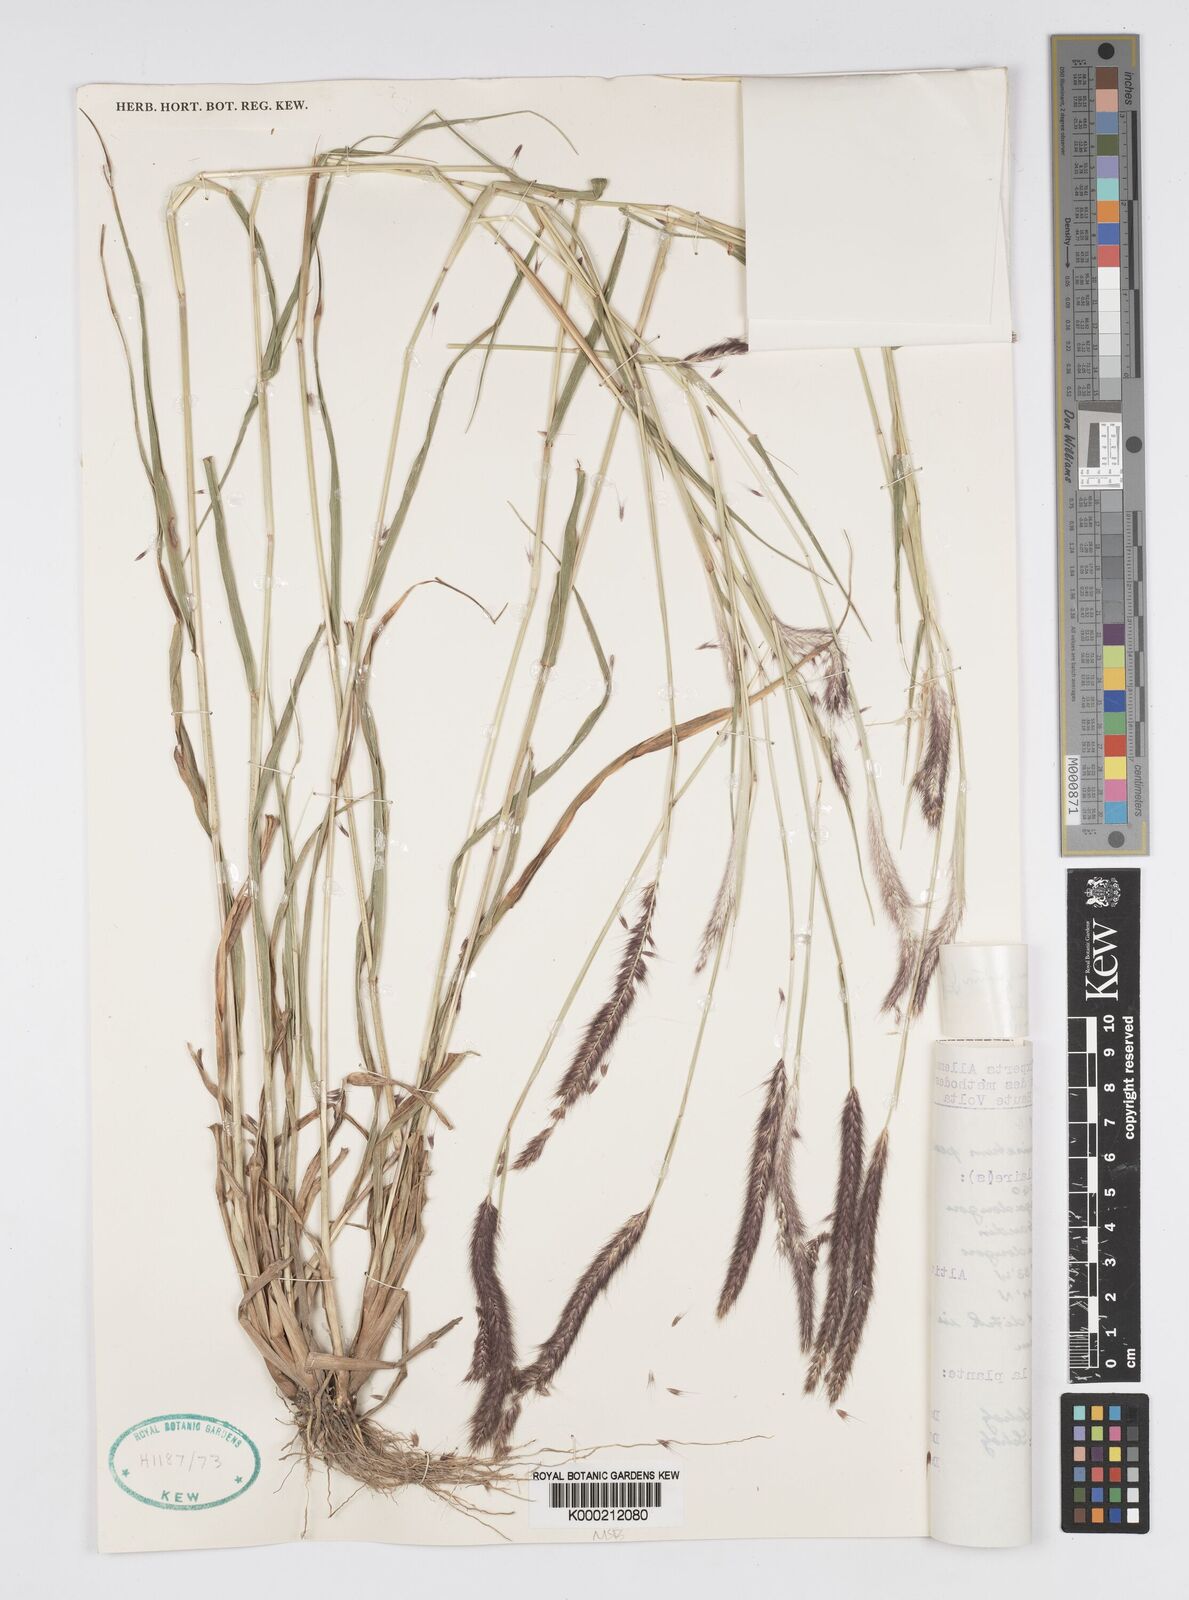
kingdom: Plantae
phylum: Tracheophyta
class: Liliopsida
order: Poales
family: Poaceae
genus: Setaria
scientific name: Setaria parviflora
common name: Knotroot bristle-grass
